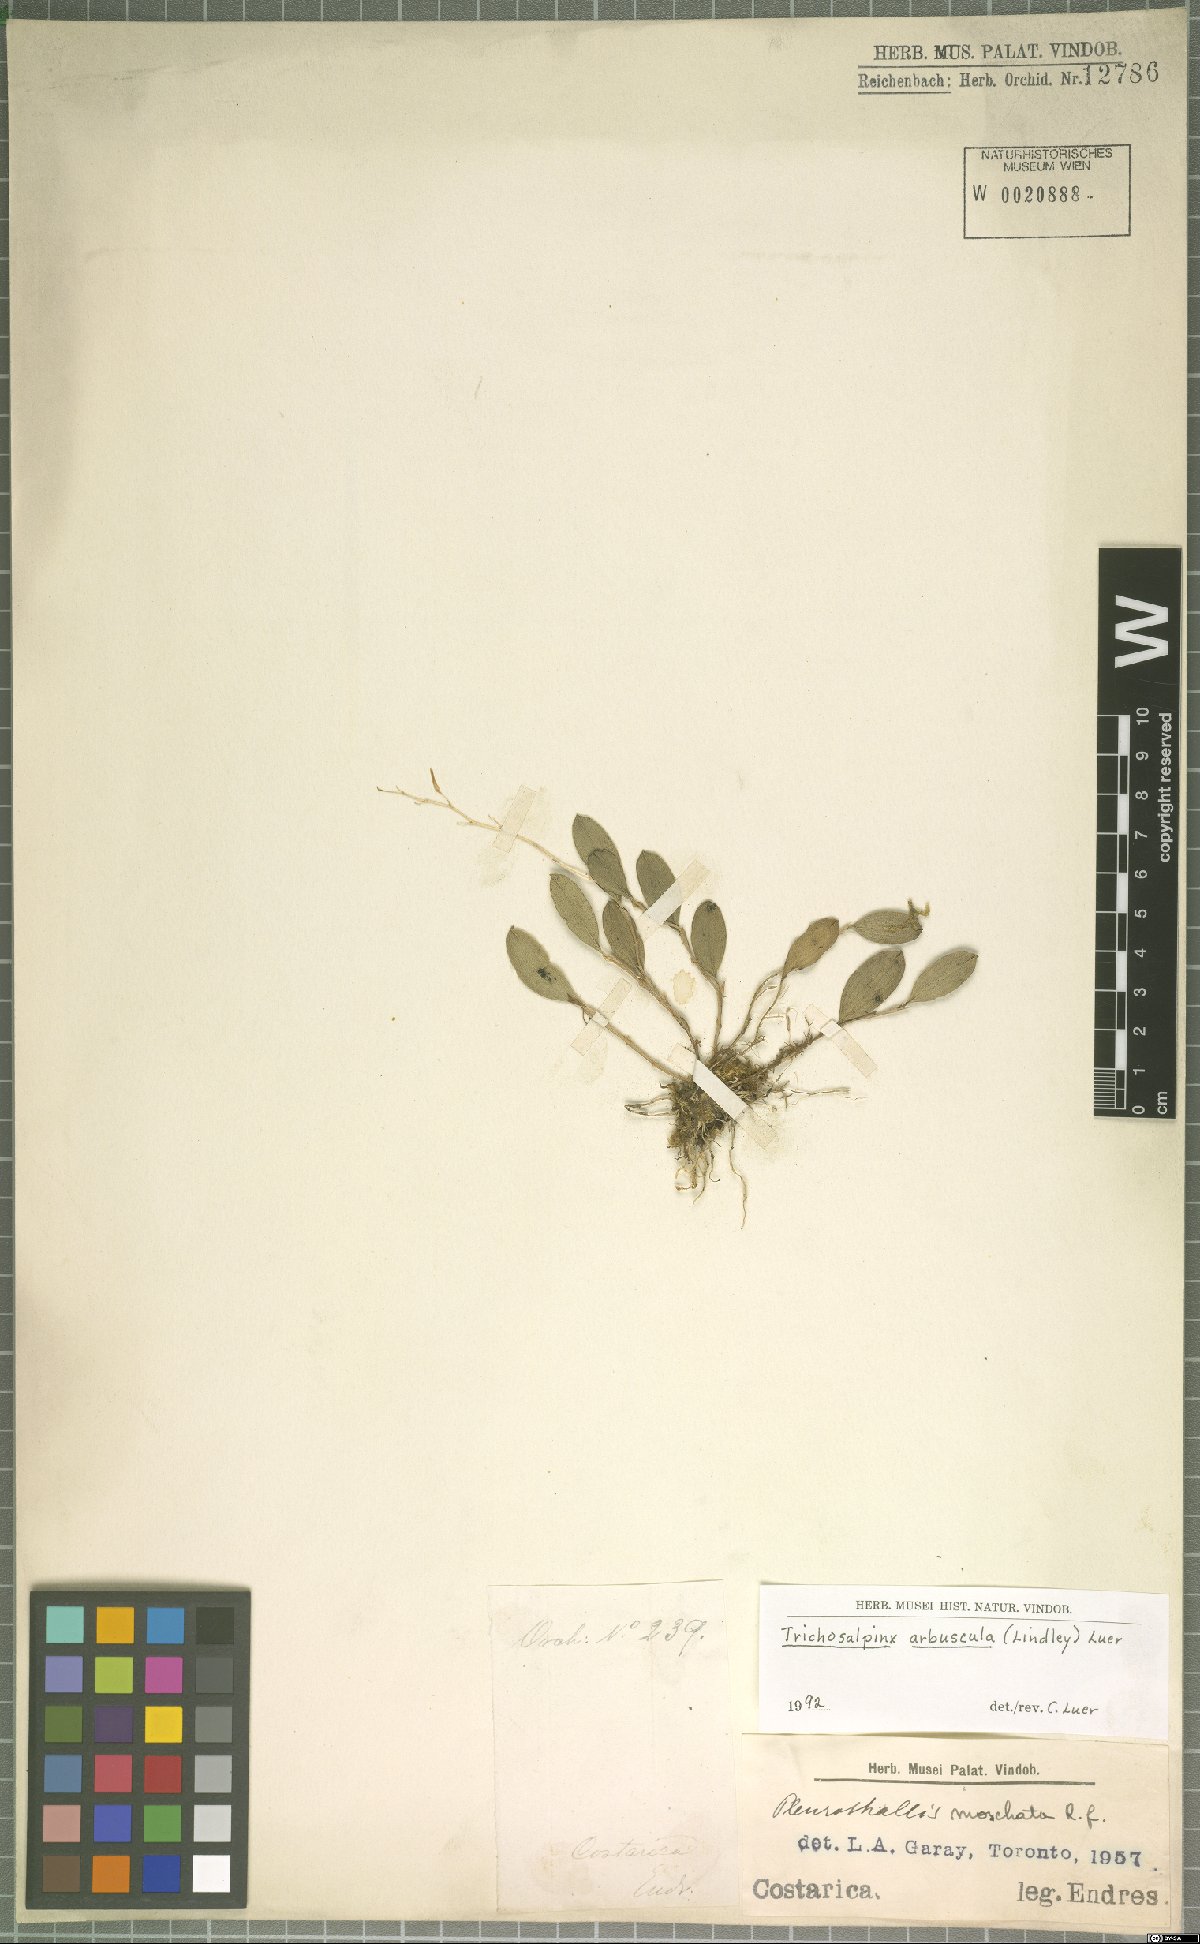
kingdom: Plantae
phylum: Tracheophyta
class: Liliopsida
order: Asparagales
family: Orchidaceae
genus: Trichosalpinx
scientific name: Trichosalpinx arbuscula
